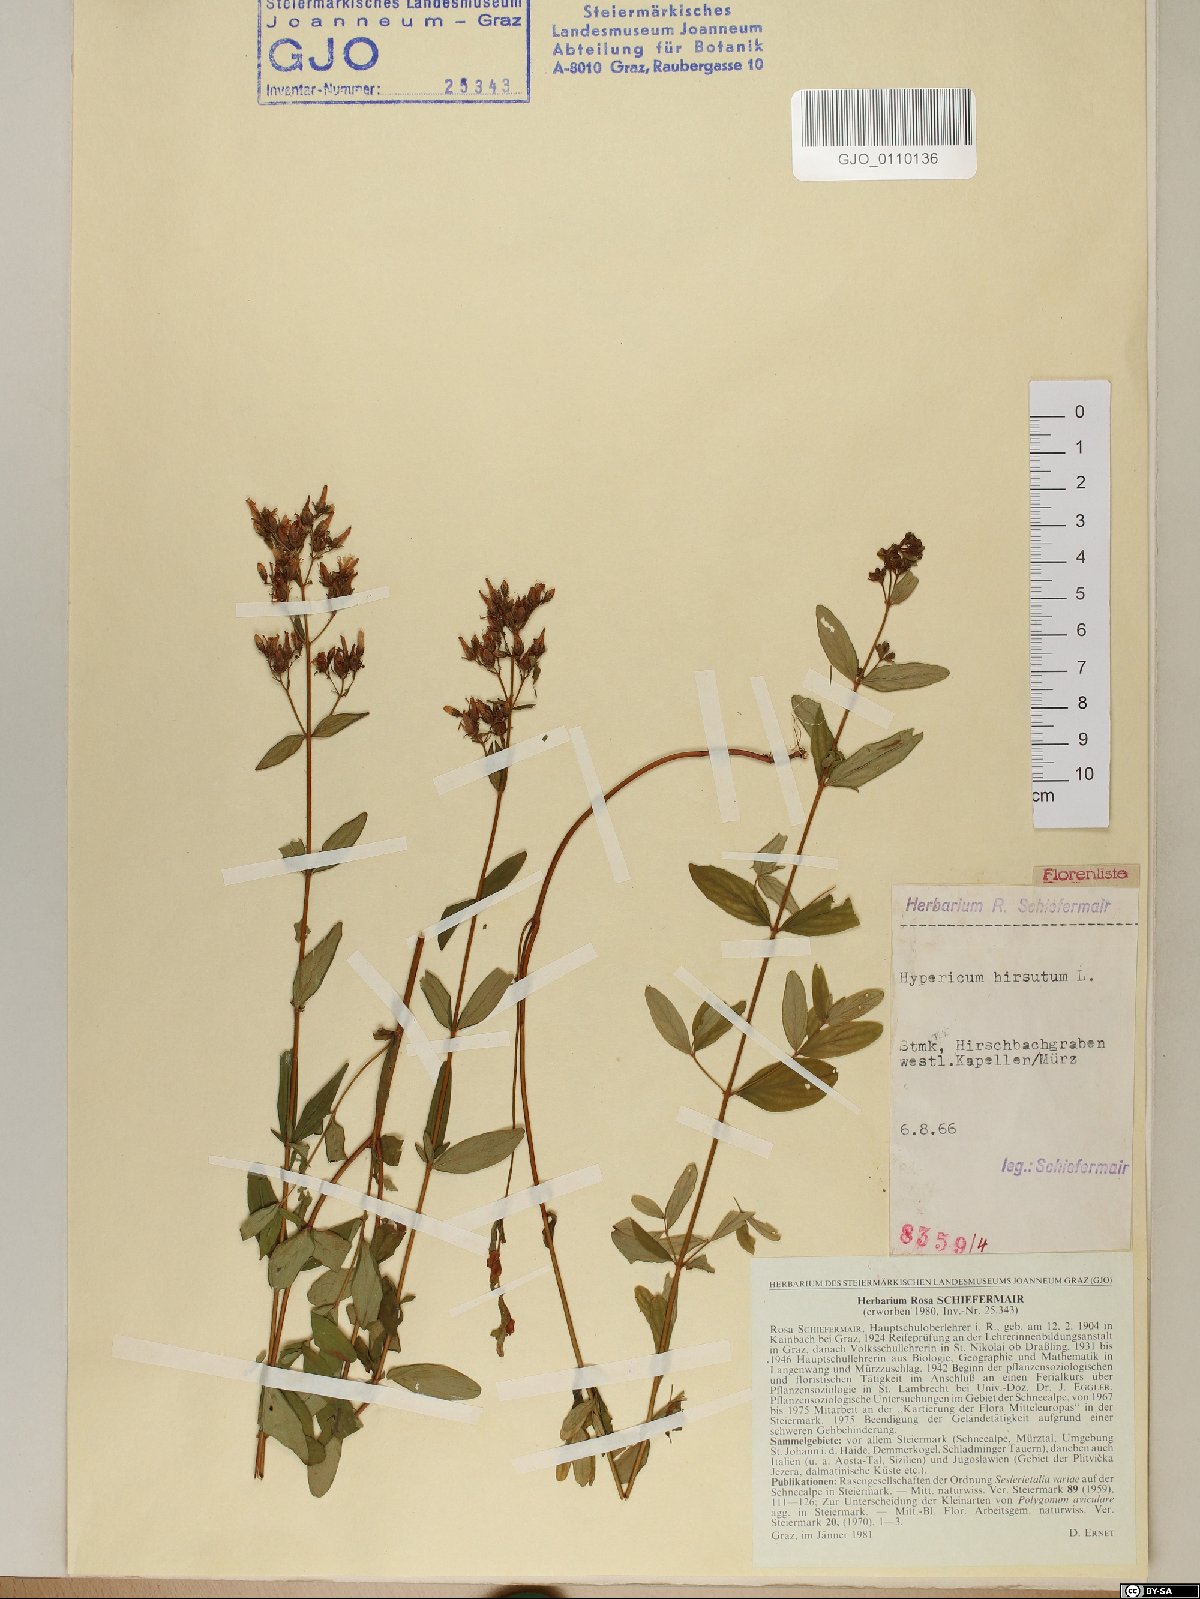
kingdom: Plantae
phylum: Tracheophyta
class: Magnoliopsida
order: Malpighiales
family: Hypericaceae
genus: Hypericum
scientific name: Hypericum hirsutum
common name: Hairy st. john's-wort
